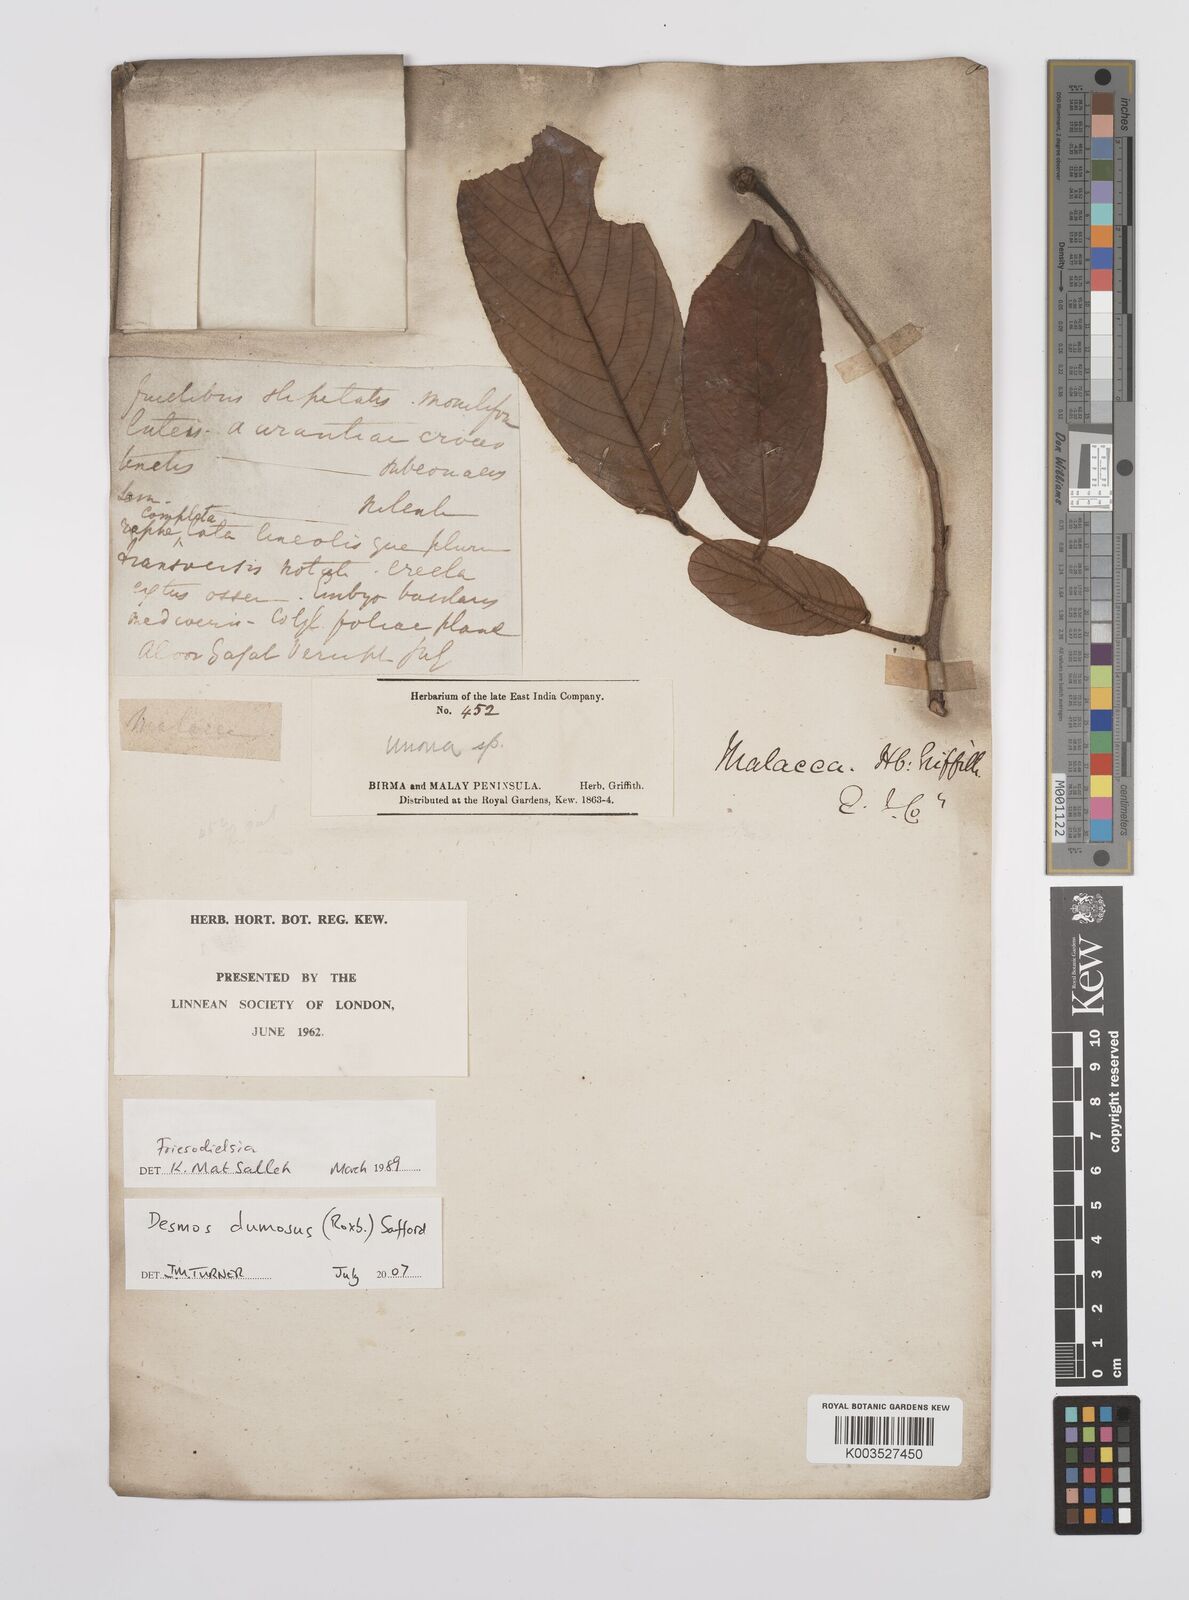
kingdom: Plantae
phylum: Tracheophyta
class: Magnoliopsida
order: Magnoliales
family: Annonaceae
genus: Desmos
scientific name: Desmos dumosus
